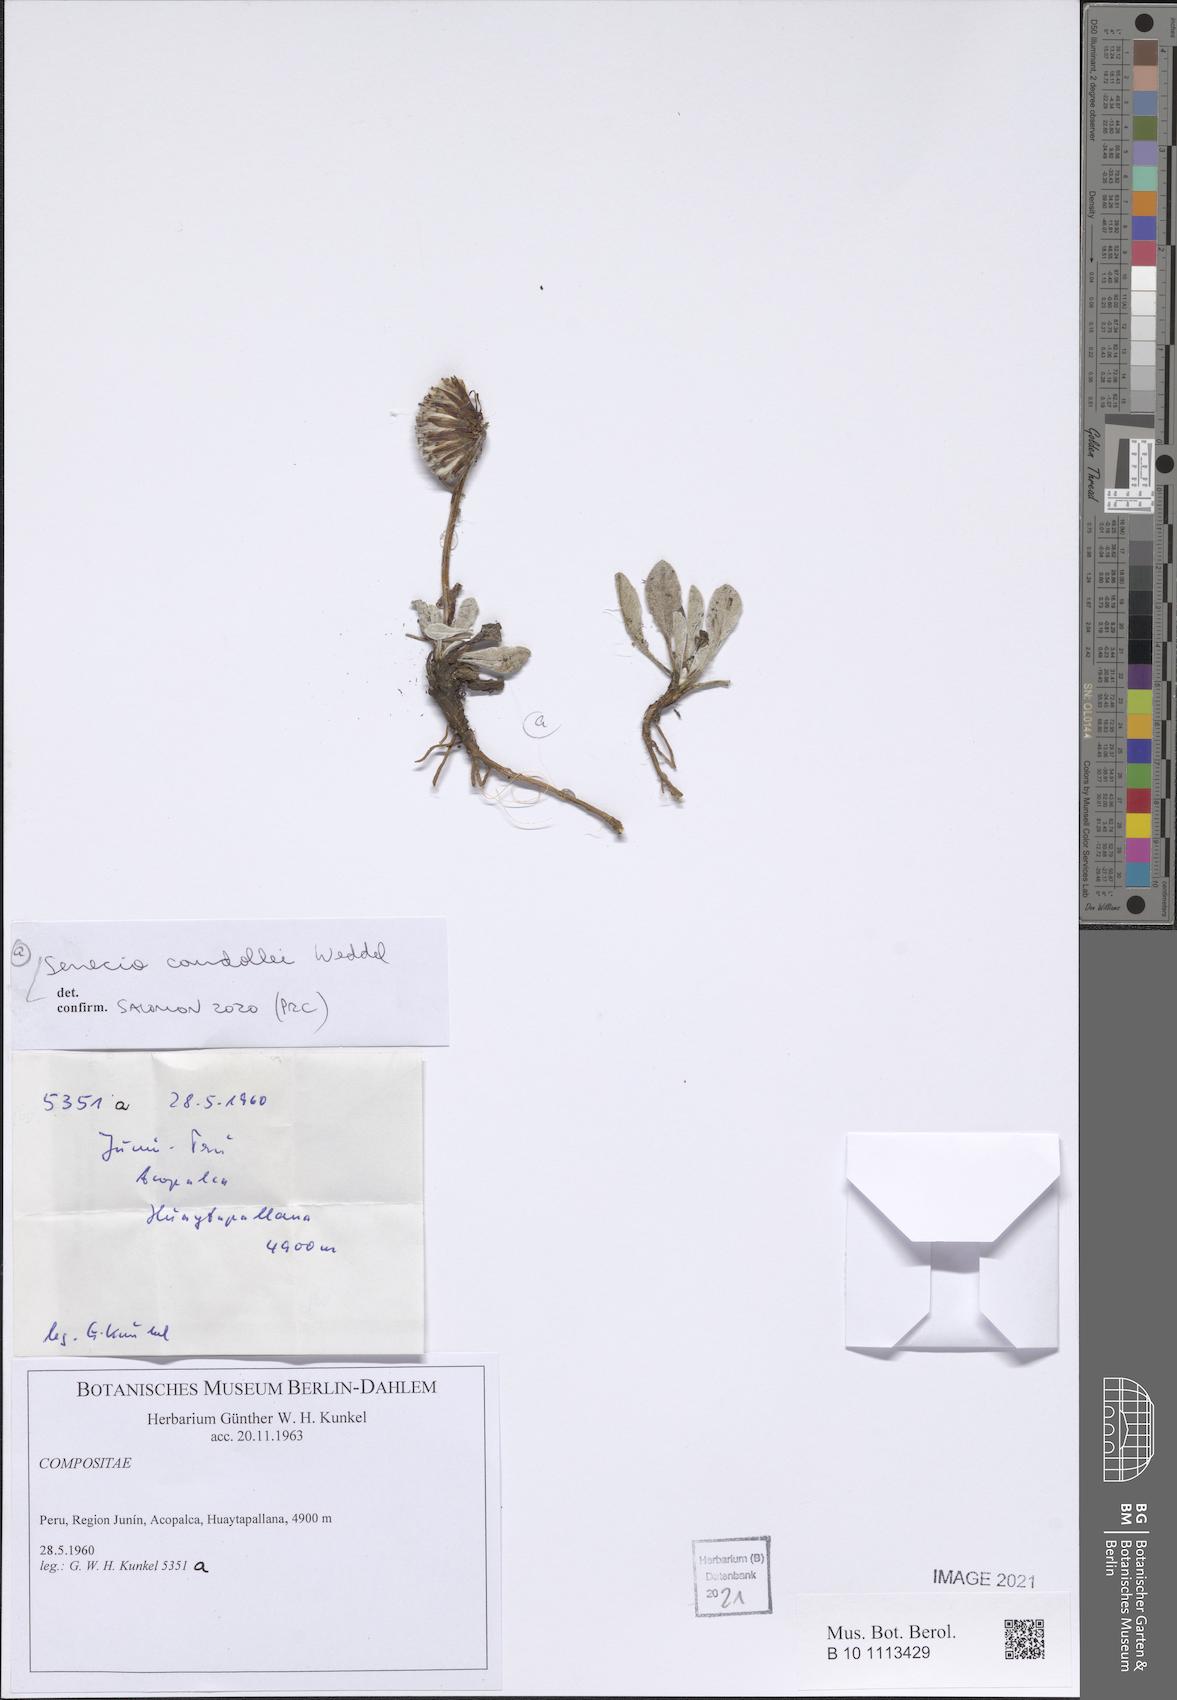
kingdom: Plantae
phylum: Tracheophyta
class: Magnoliopsida
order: Asterales
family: Asteraceae
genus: Culcitium
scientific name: Culcitium humile
